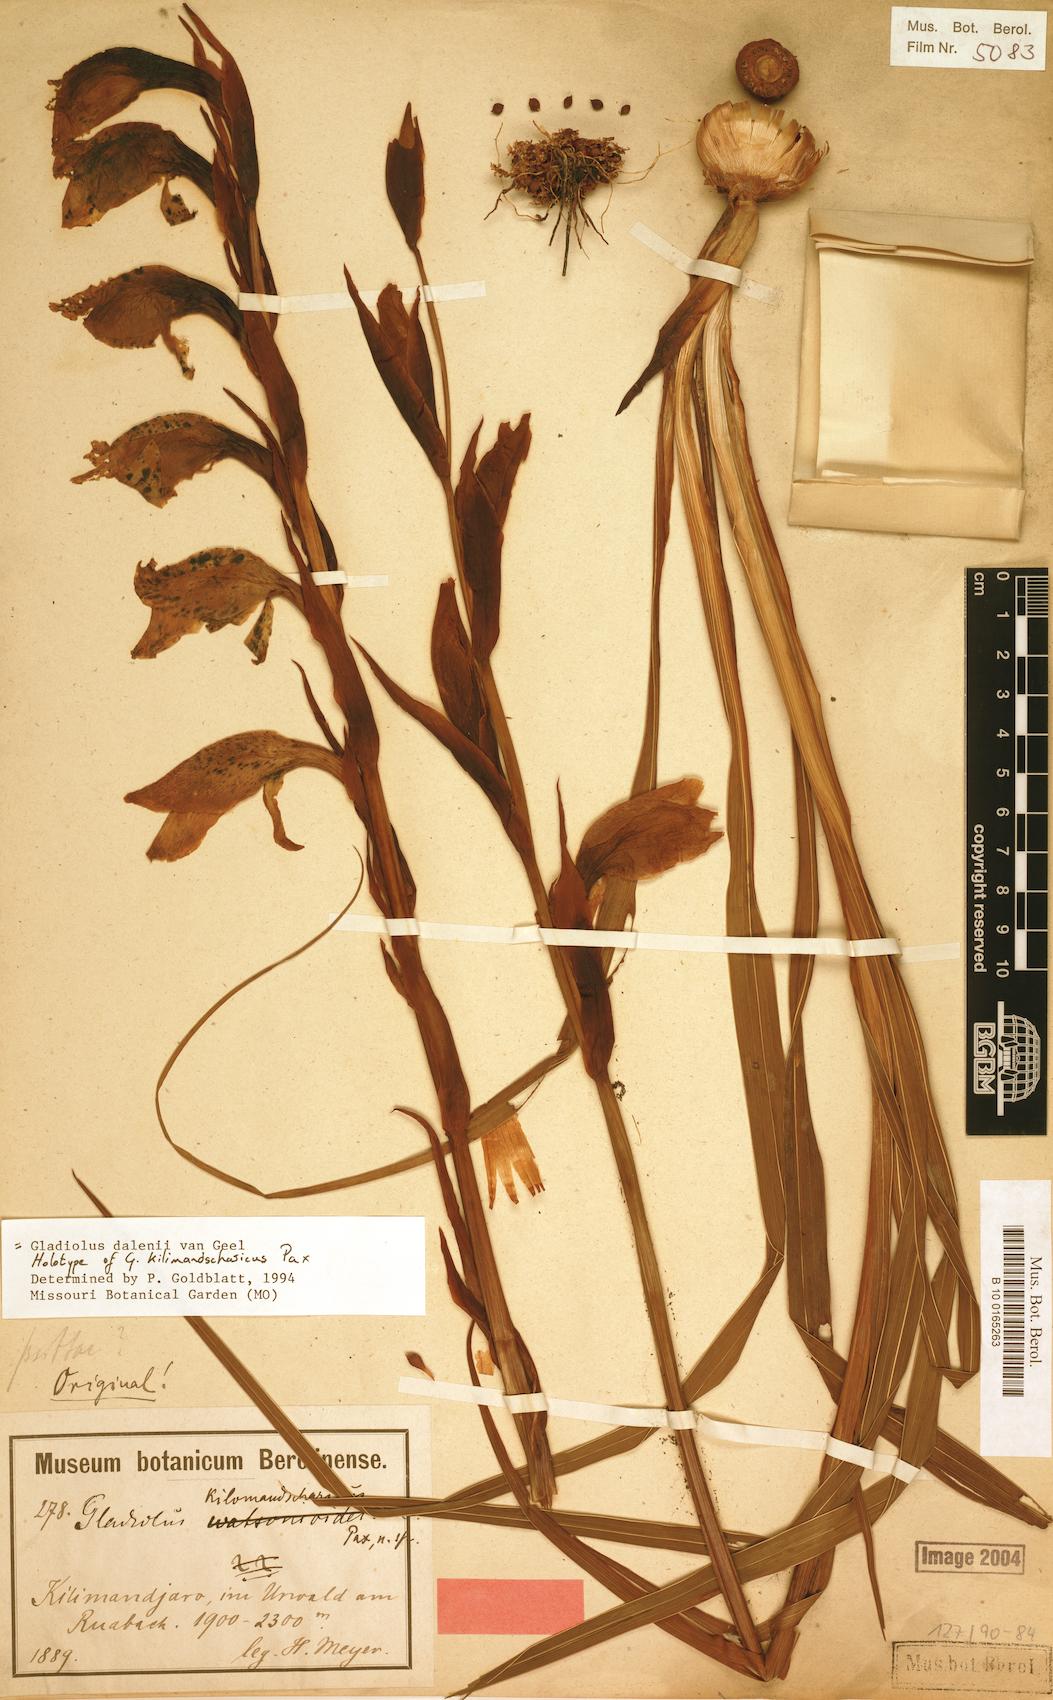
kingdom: Plantae
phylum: Tracheophyta
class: Liliopsida
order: Asparagales
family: Iridaceae
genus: Gladiolus
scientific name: Gladiolus dalenii
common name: Cornflag
